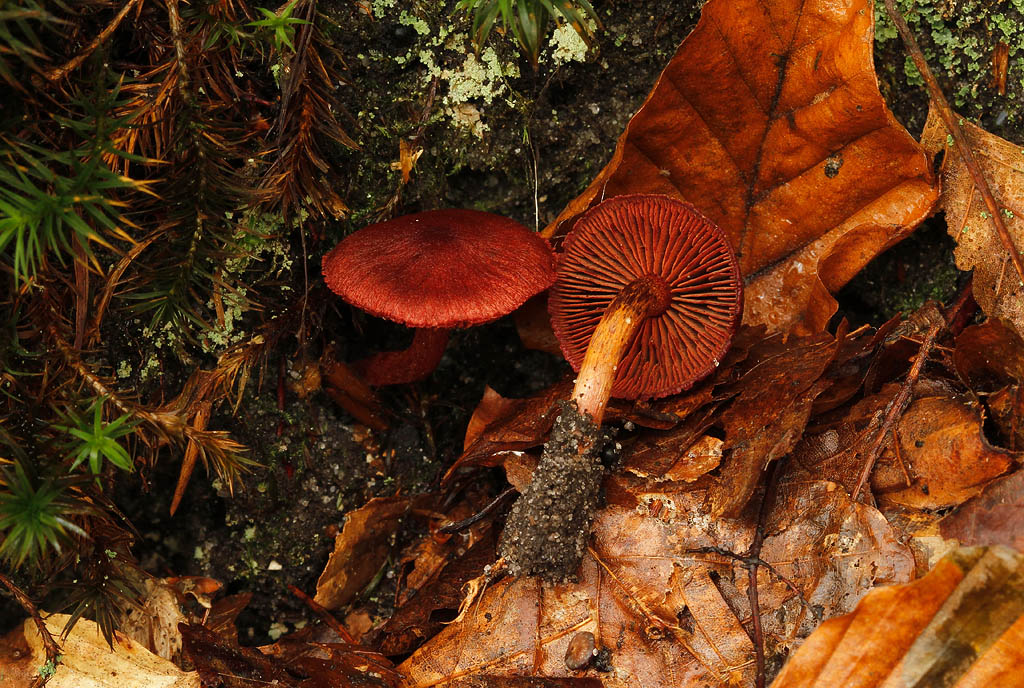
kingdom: Fungi
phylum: Basidiomycota
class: Agaricomycetes
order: Agaricales
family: Cortinariaceae
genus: Cortinarius
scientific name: Cortinarius sanguineus
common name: Bloodred webcap
